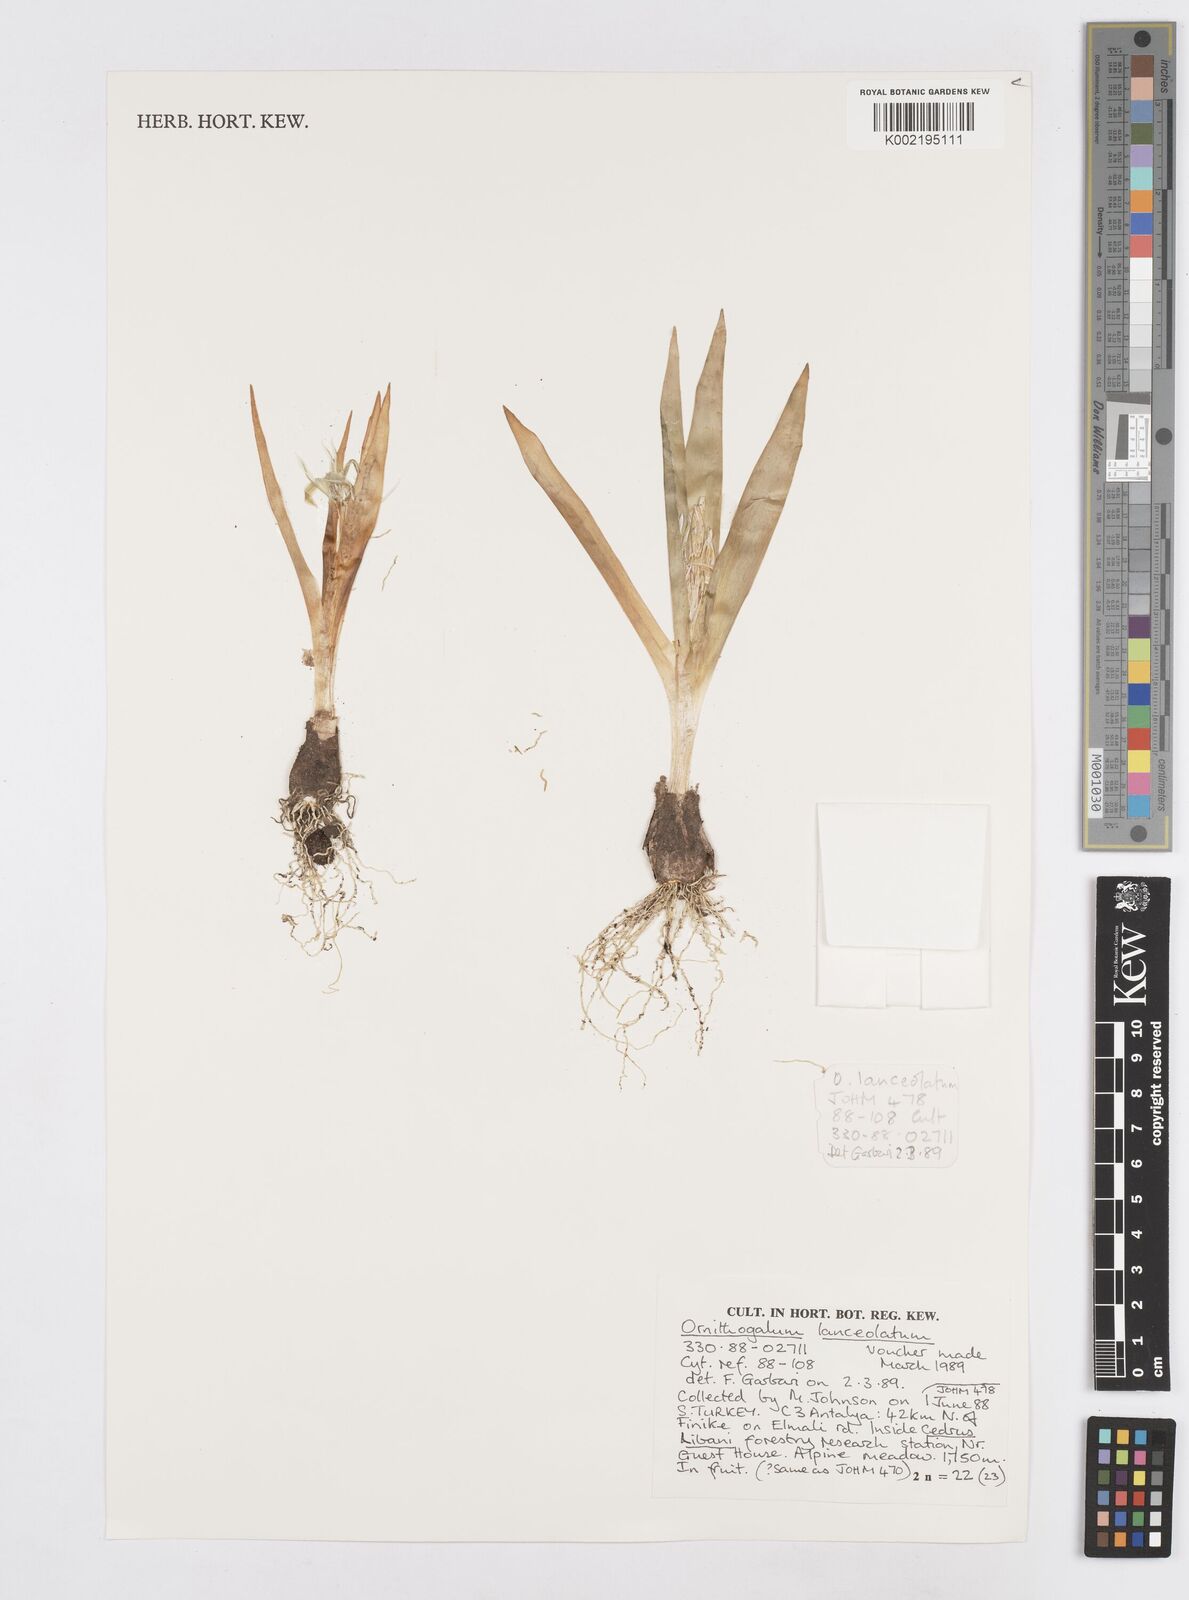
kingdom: Plantae
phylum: Tracheophyta
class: Liliopsida
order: Asparagales
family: Asparagaceae
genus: Ornithogalum
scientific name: Ornithogalum lanceolatum
